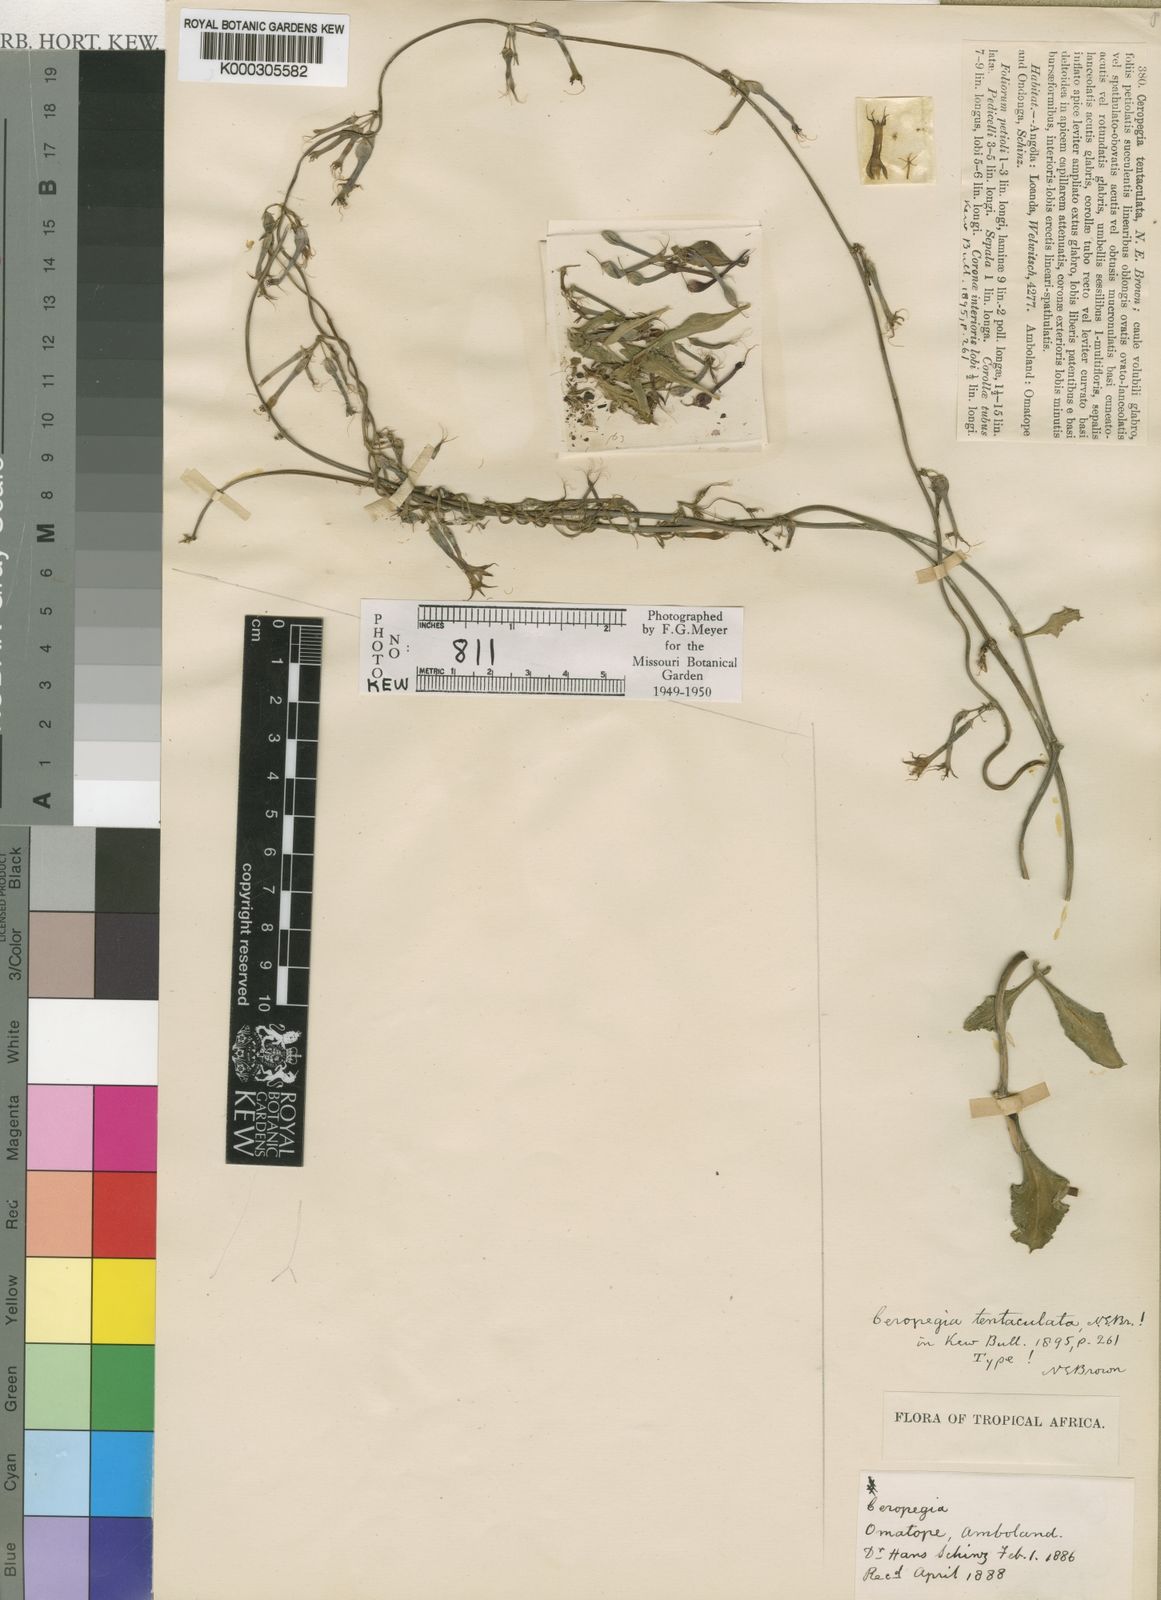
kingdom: Plantae
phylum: Tracheophyta
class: Magnoliopsida
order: Gentianales
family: Apocynaceae
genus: Ceropegia
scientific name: Ceropegia multiflora
